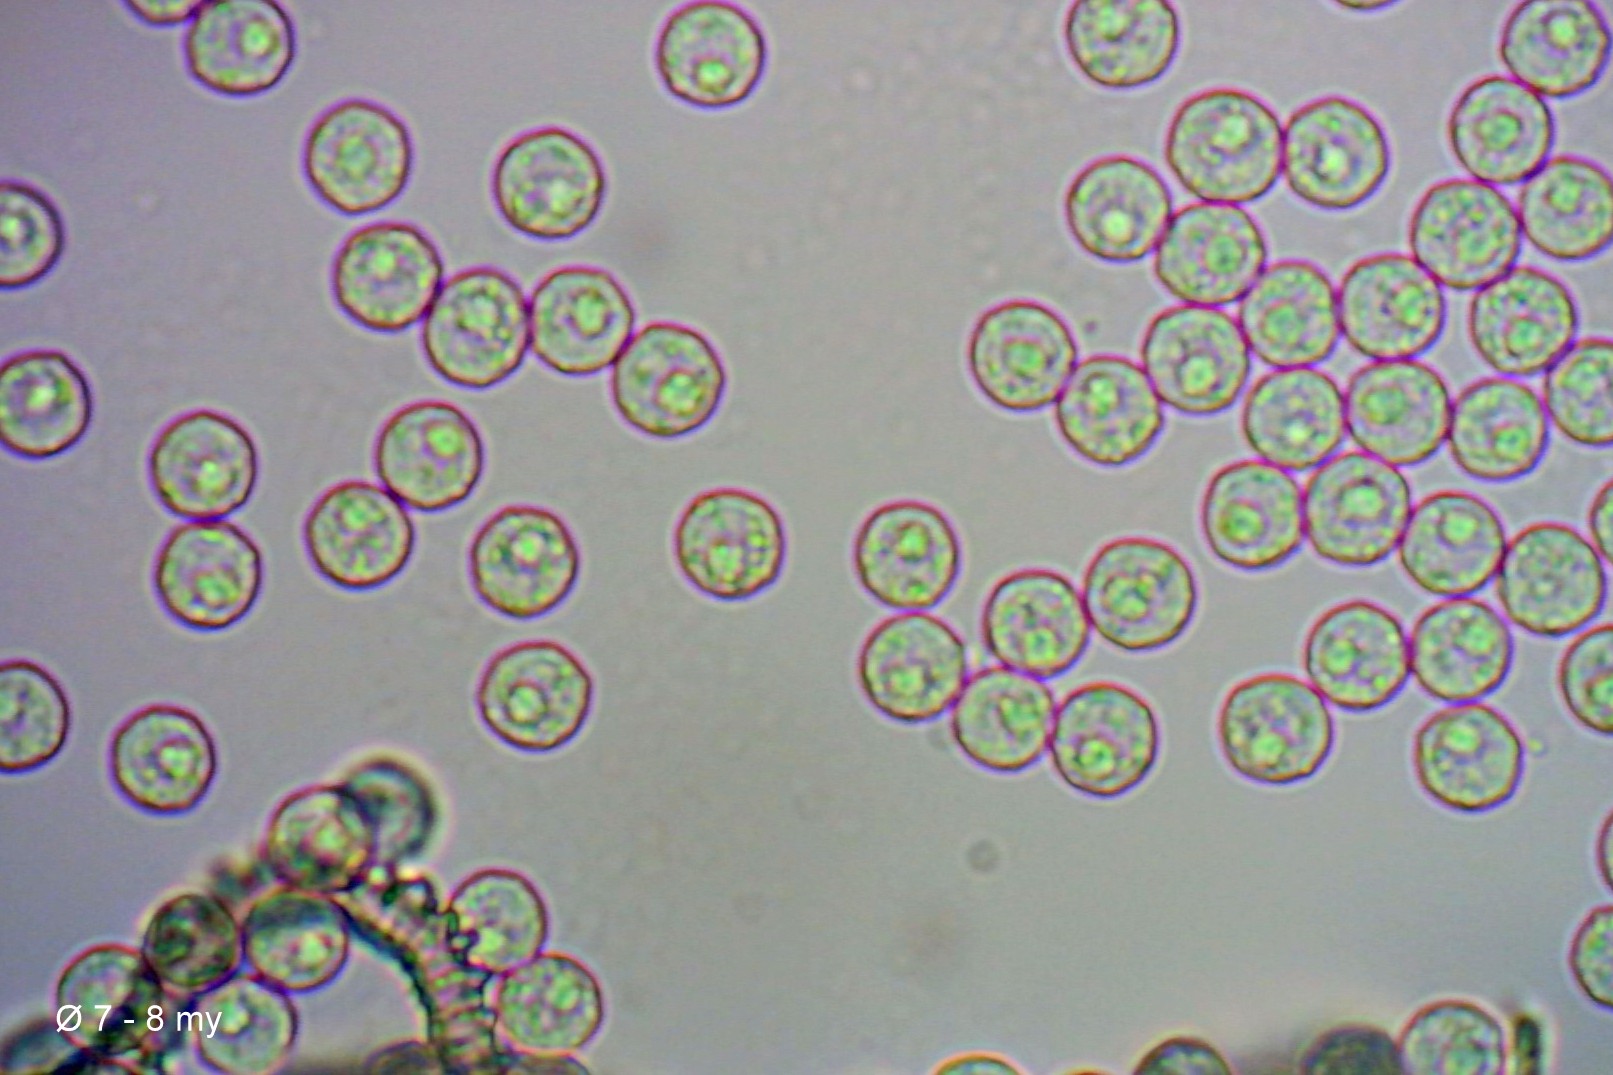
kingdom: Protozoa
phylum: Mycetozoa
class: Myxomycetes
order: Trichiales
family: Arcyriaceae
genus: Arcyria
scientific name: Arcyria incarnata
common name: rosa skålsvøb
